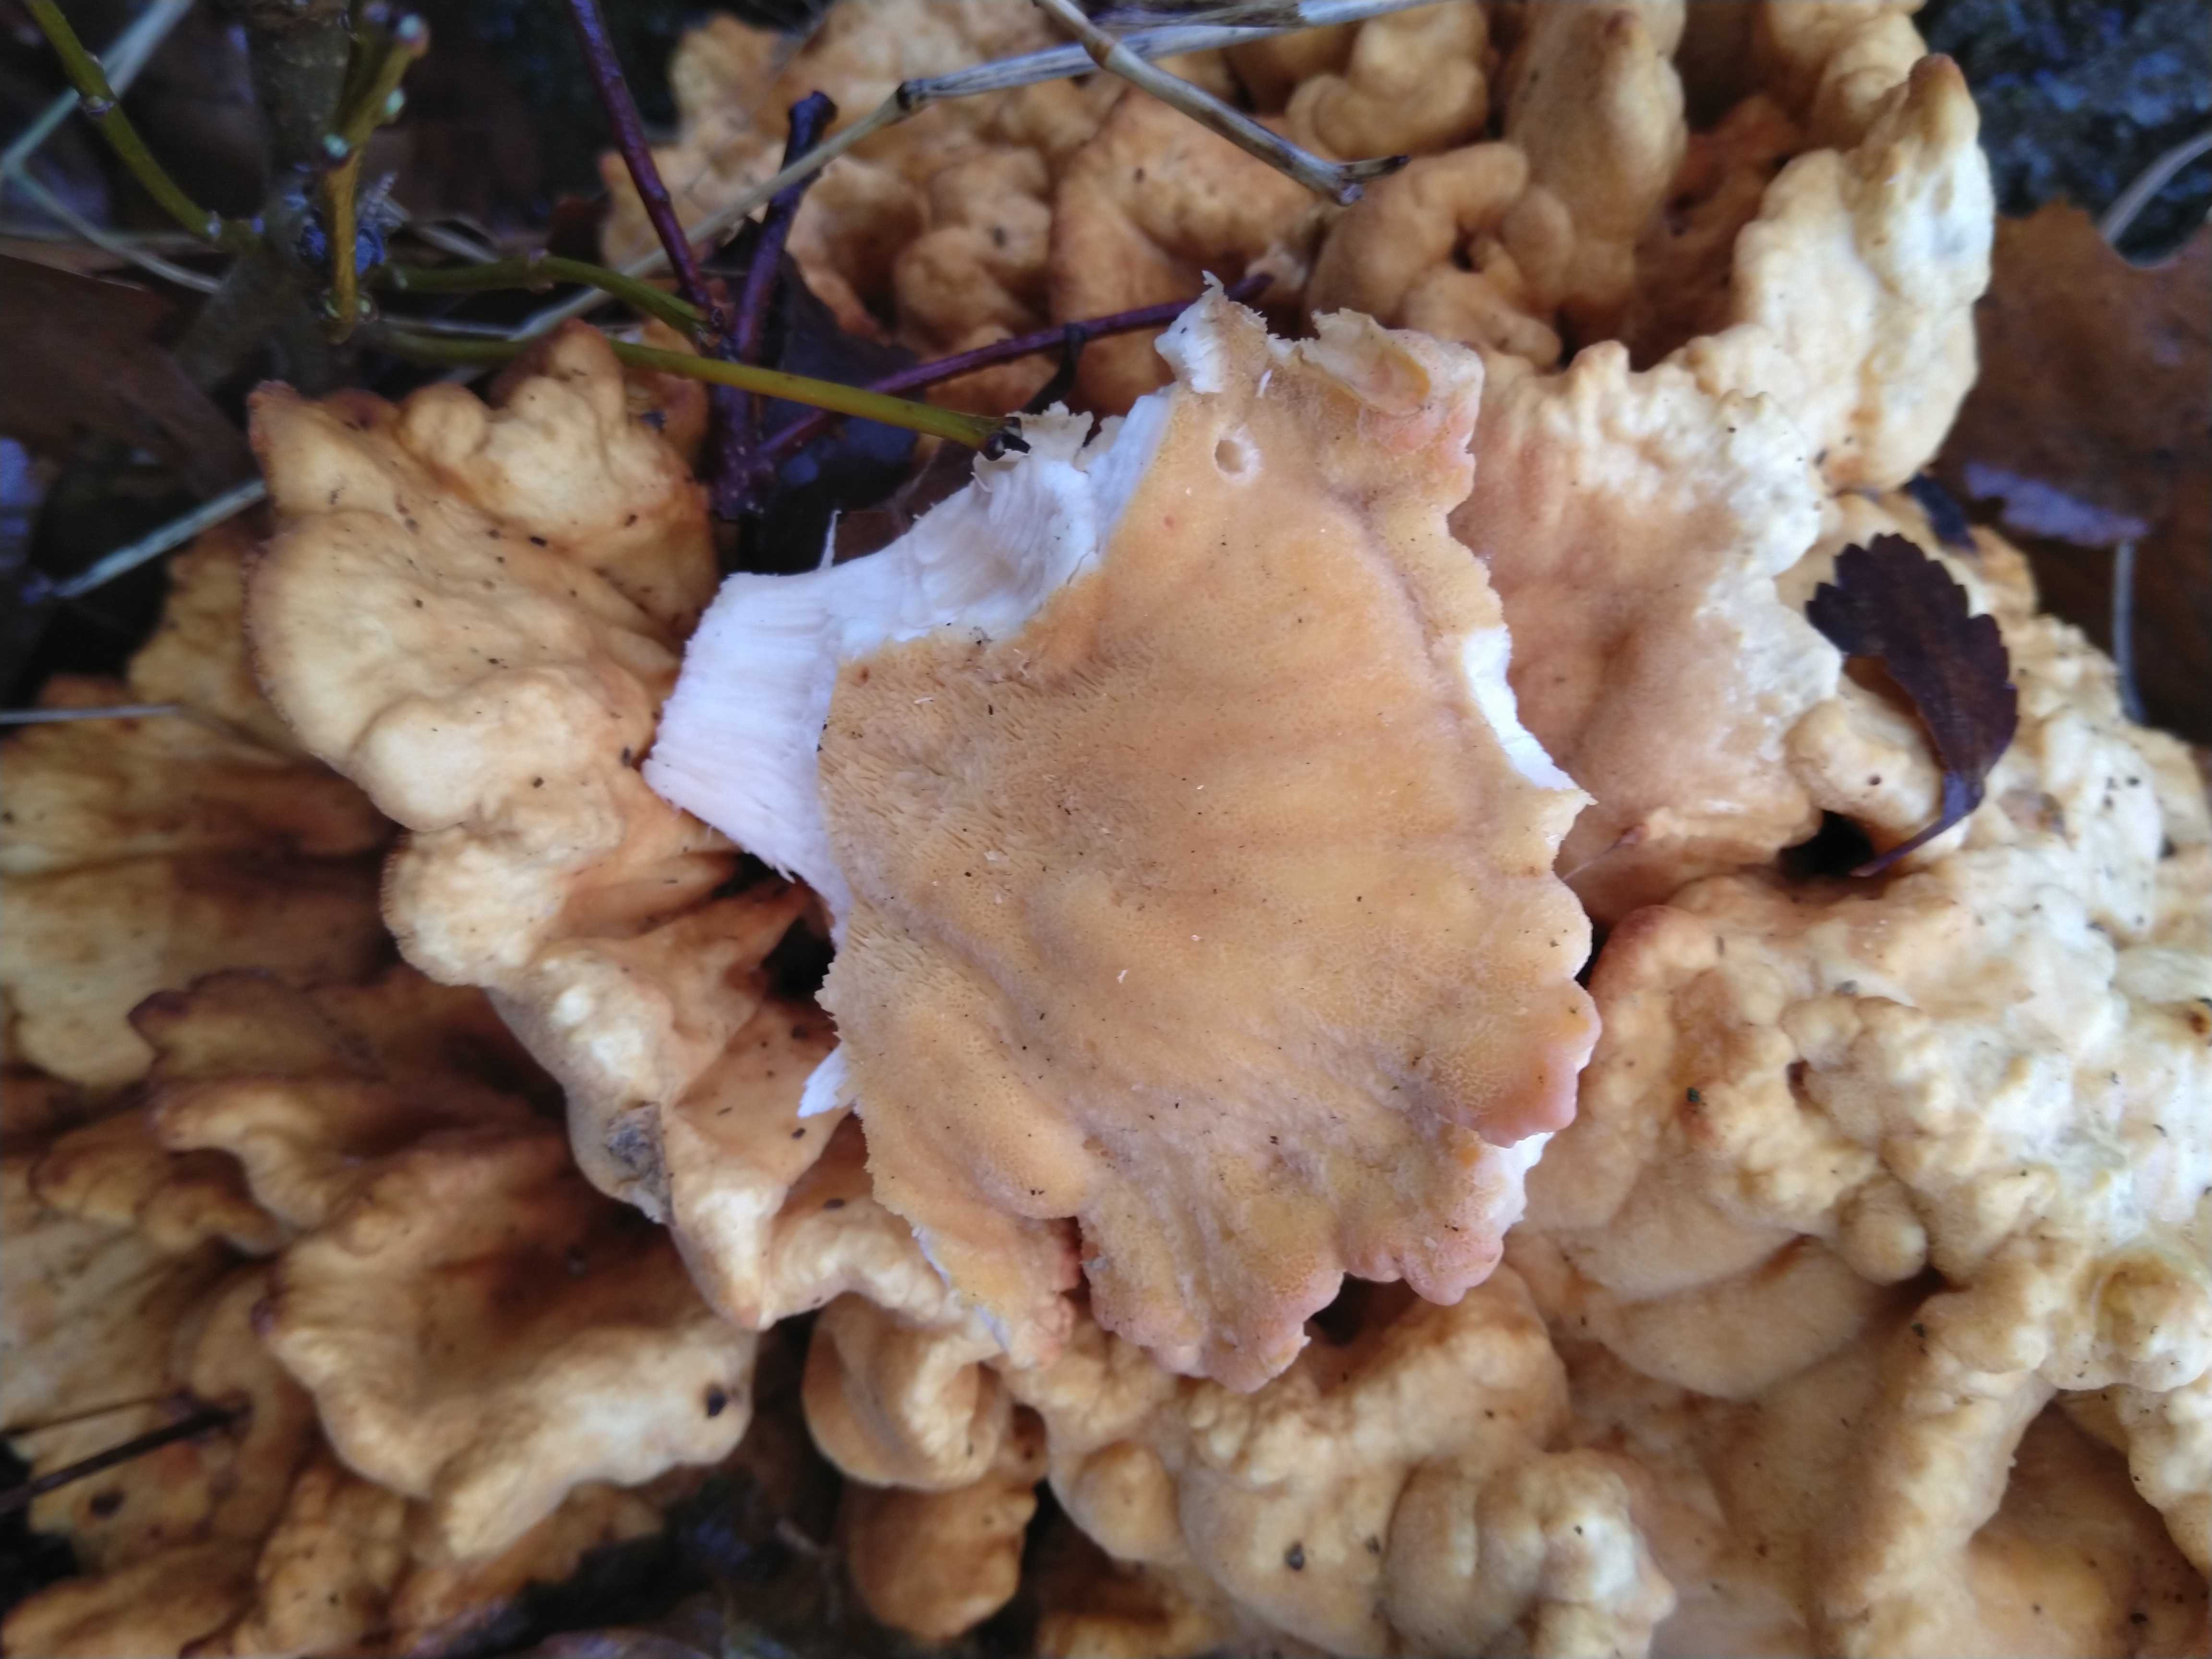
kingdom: Fungi
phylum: Basidiomycota
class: Agaricomycetes
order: Polyporales
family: Laetiporaceae
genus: Laetiporus
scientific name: Laetiporus sulphureus
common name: svovlporesvamp
